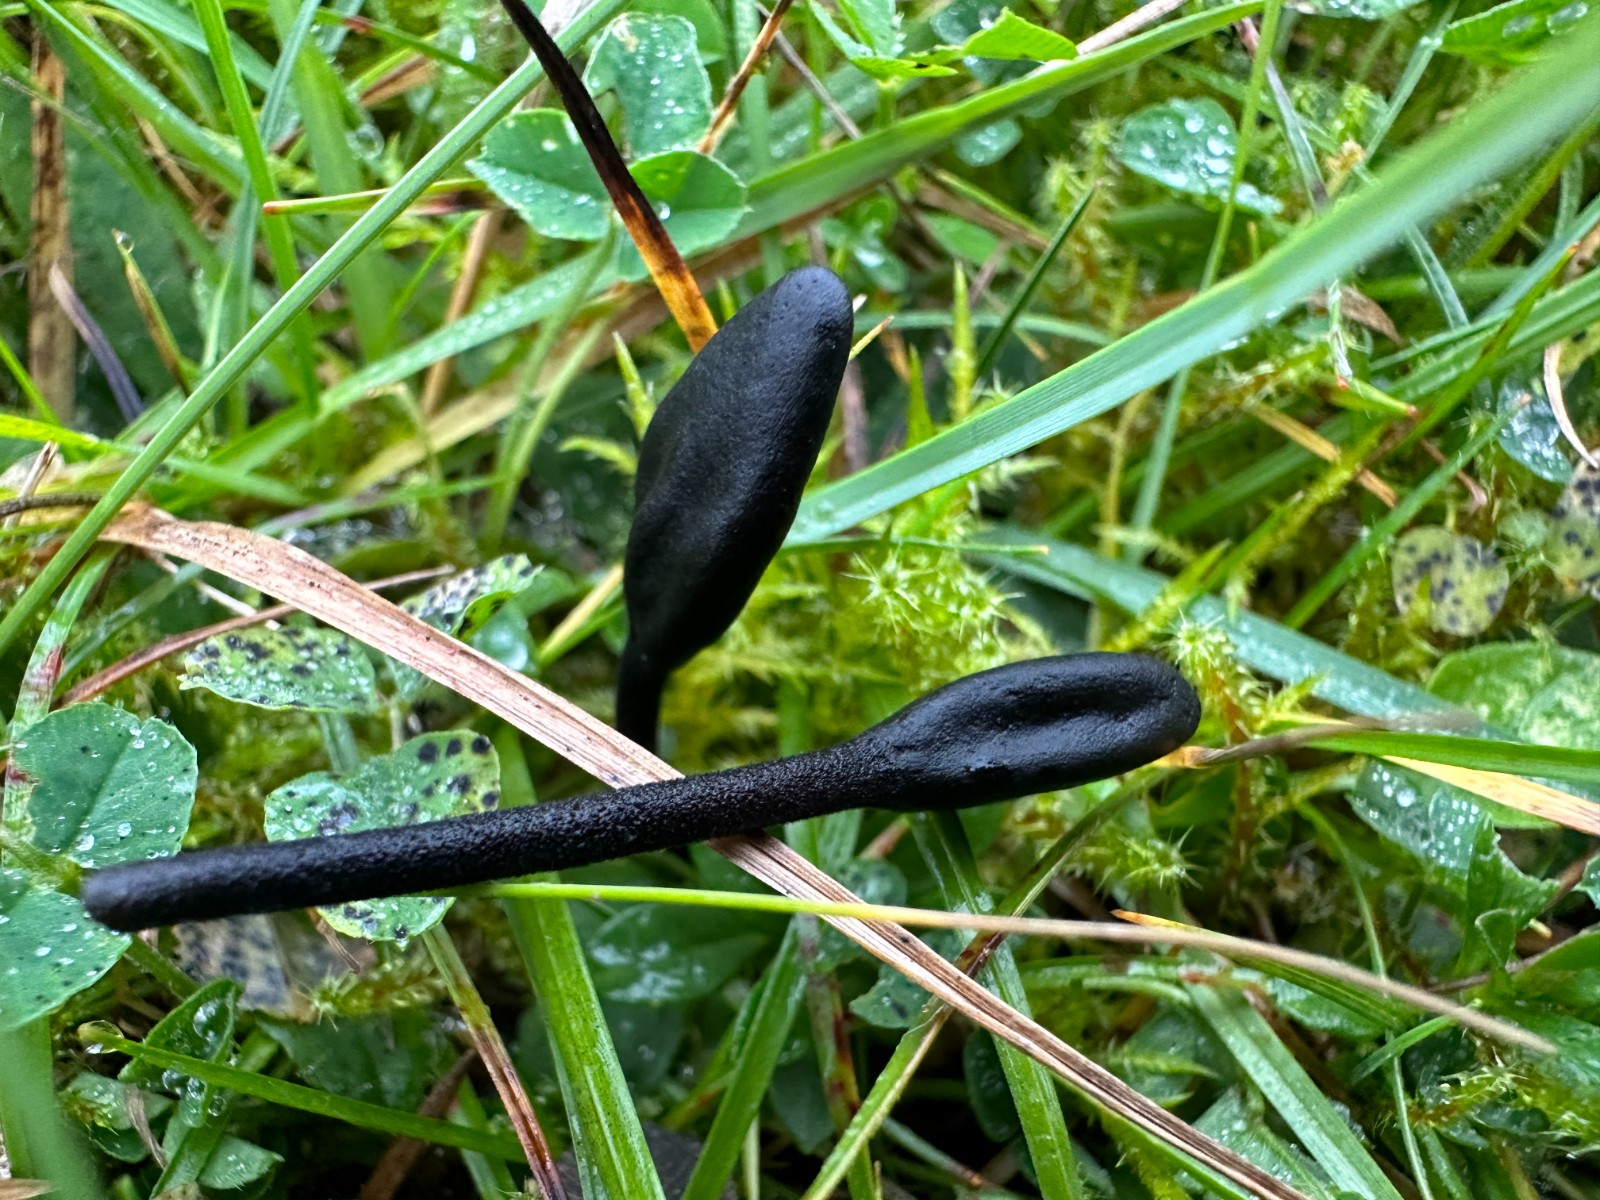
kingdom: Fungi
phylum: Ascomycota
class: Geoglossomycetes
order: Geoglossales
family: Geoglossaceae
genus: Geoglossum
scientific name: Geoglossum
